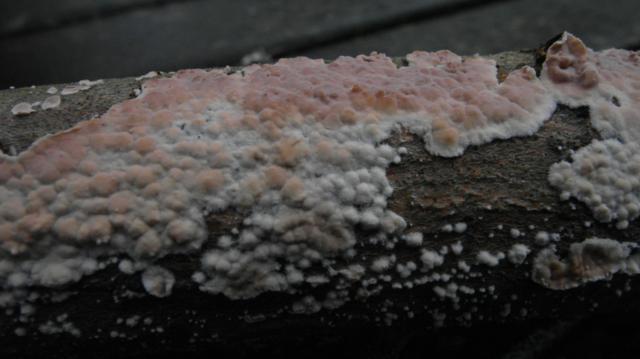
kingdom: Fungi
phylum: Basidiomycota
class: Agaricomycetes
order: Agaricales
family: Physalacriaceae
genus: Cylindrobasidium
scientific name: Cylindrobasidium evolvens
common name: sprækkehinde
